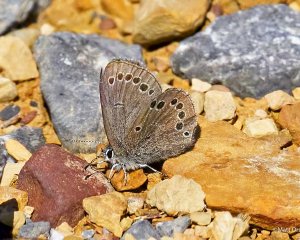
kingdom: Animalia
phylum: Arthropoda
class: Insecta
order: Lepidoptera
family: Lycaenidae
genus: Glaucopsyche
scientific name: Glaucopsyche lygdamus
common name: Silvery Blue
